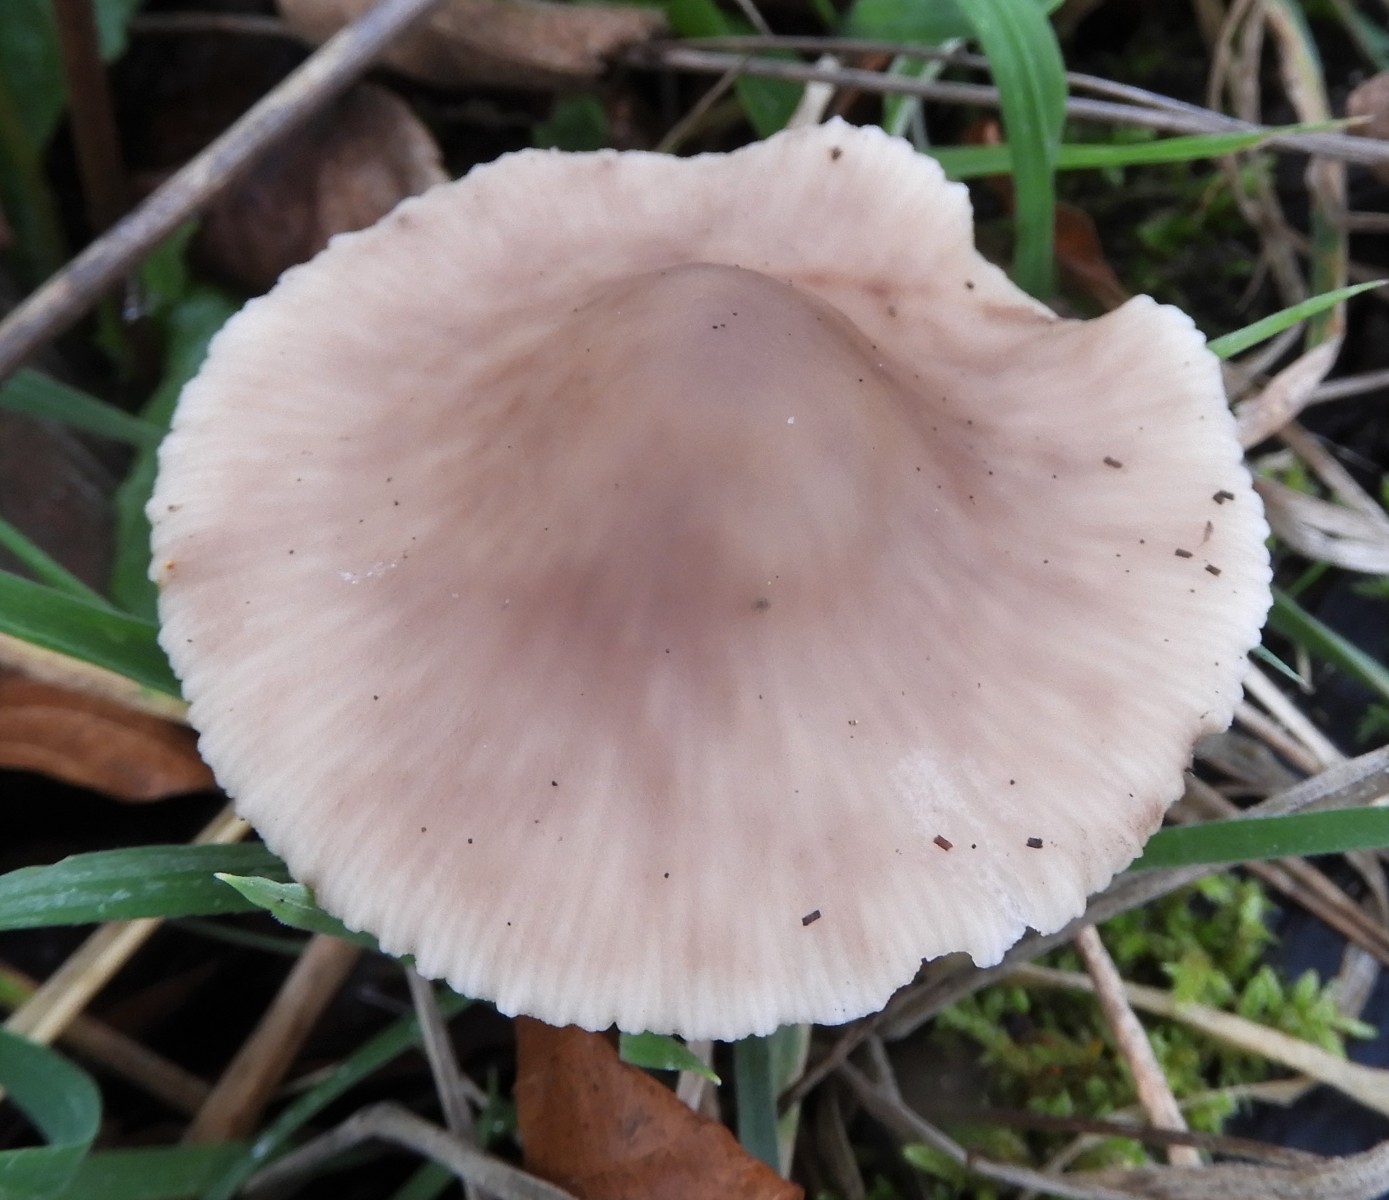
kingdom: Fungi
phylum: Basidiomycota
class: Agaricomycetes
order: Agaricales
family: Omphalotaceae
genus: Mycetinis
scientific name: Mycetinis alliaceus
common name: stor løghat
